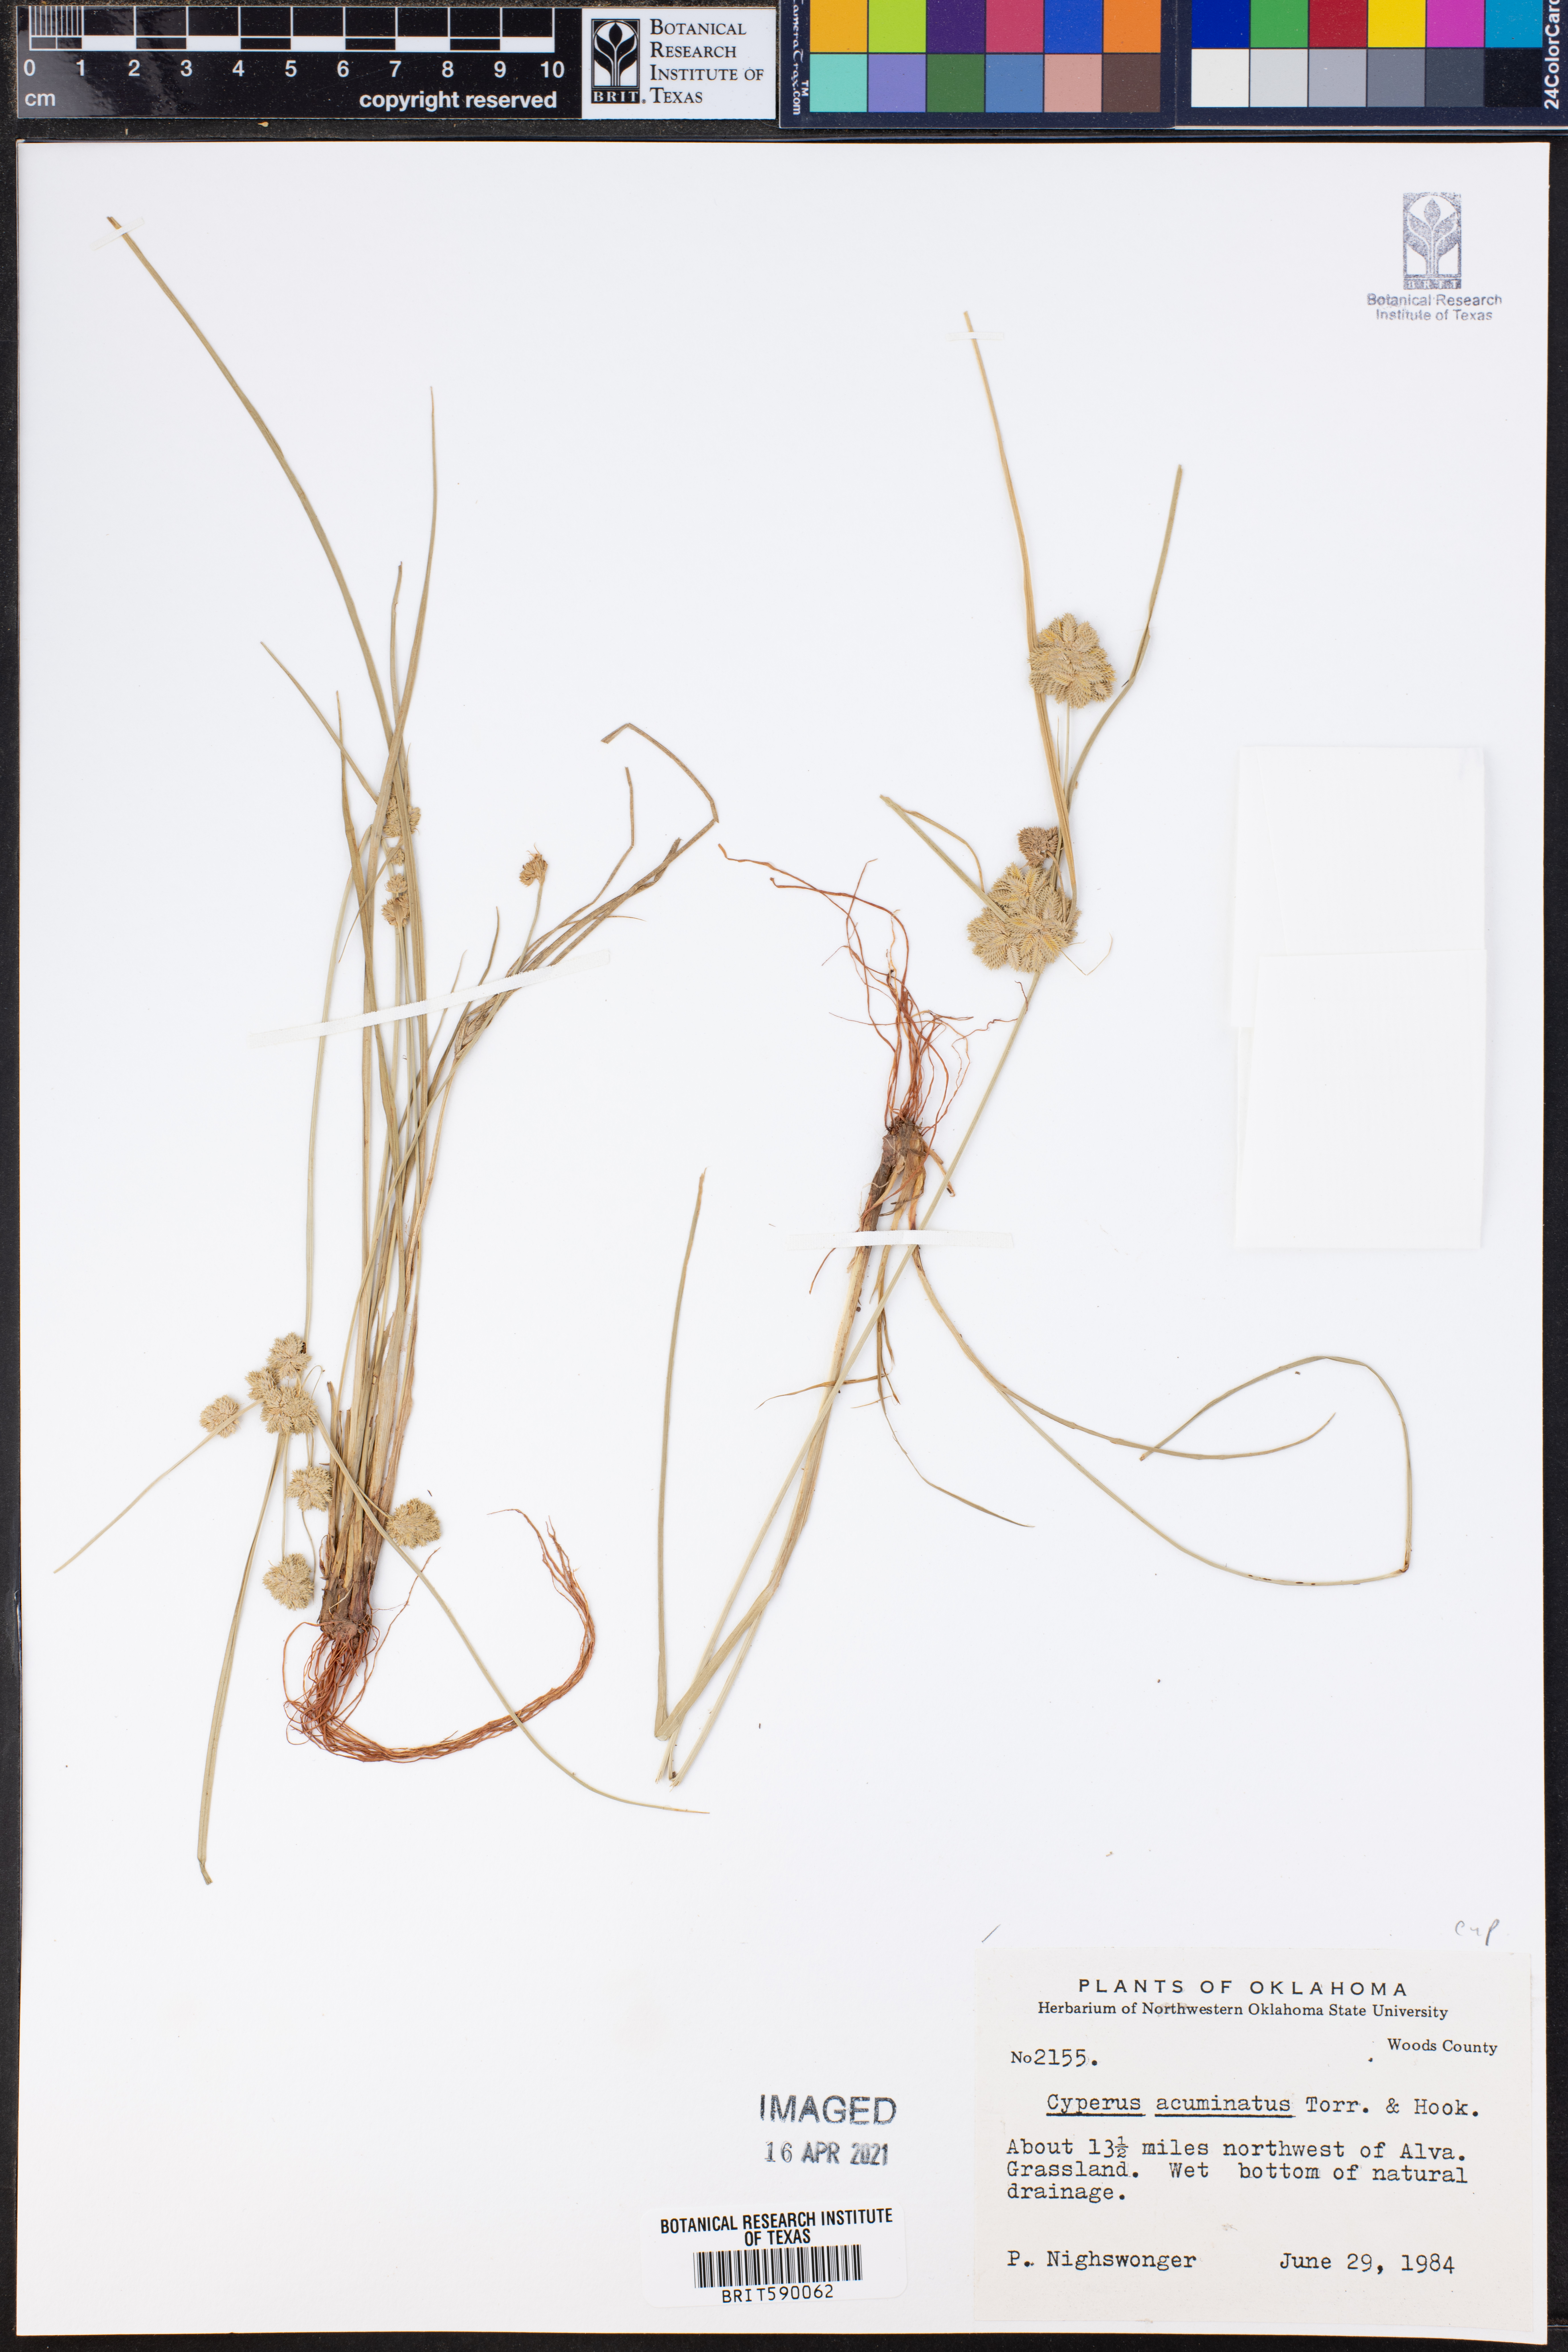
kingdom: Plantae
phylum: Tracheophyta
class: Liliopsida
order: Poales
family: Cyperaceae
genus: Cyperus
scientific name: Cyperus acuminatus
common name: Short-pointed cyperus
